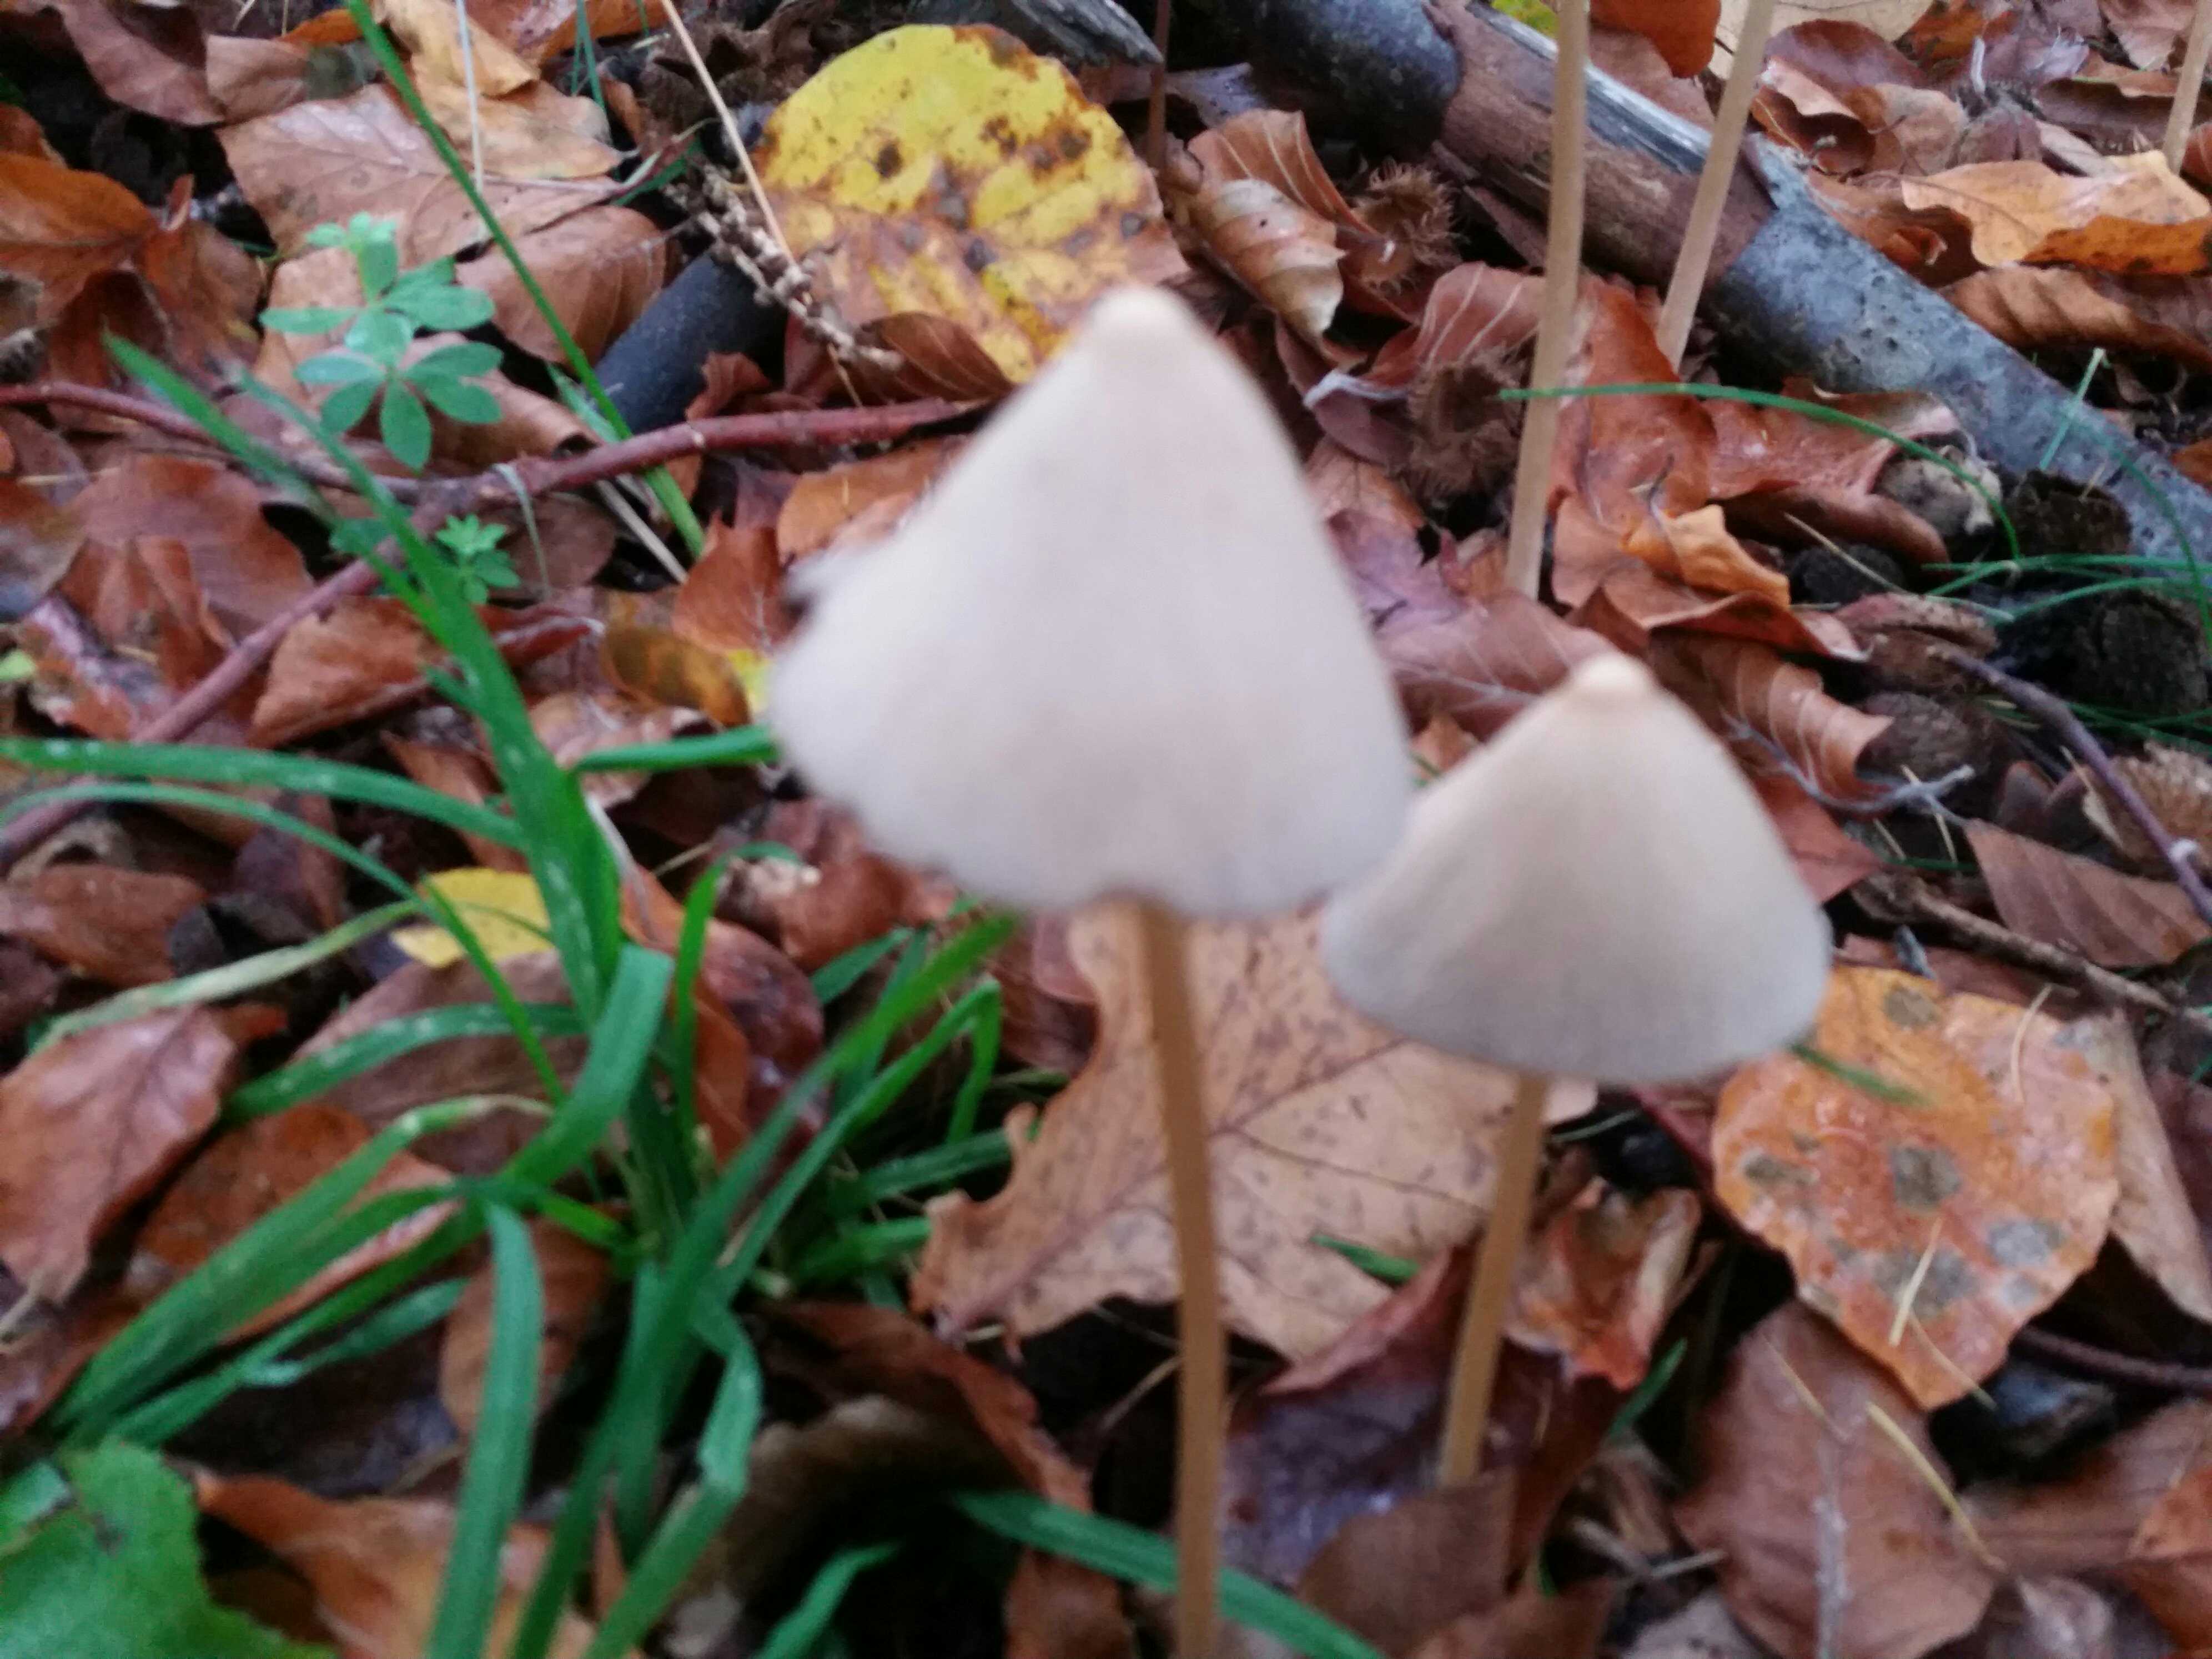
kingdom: Fungi
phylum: Basidiomycota
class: Agaricomycetes
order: Agaricales
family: Psathyrellaceae
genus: Parasola
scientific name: Parasola conopilea
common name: kegle-hjulhat
